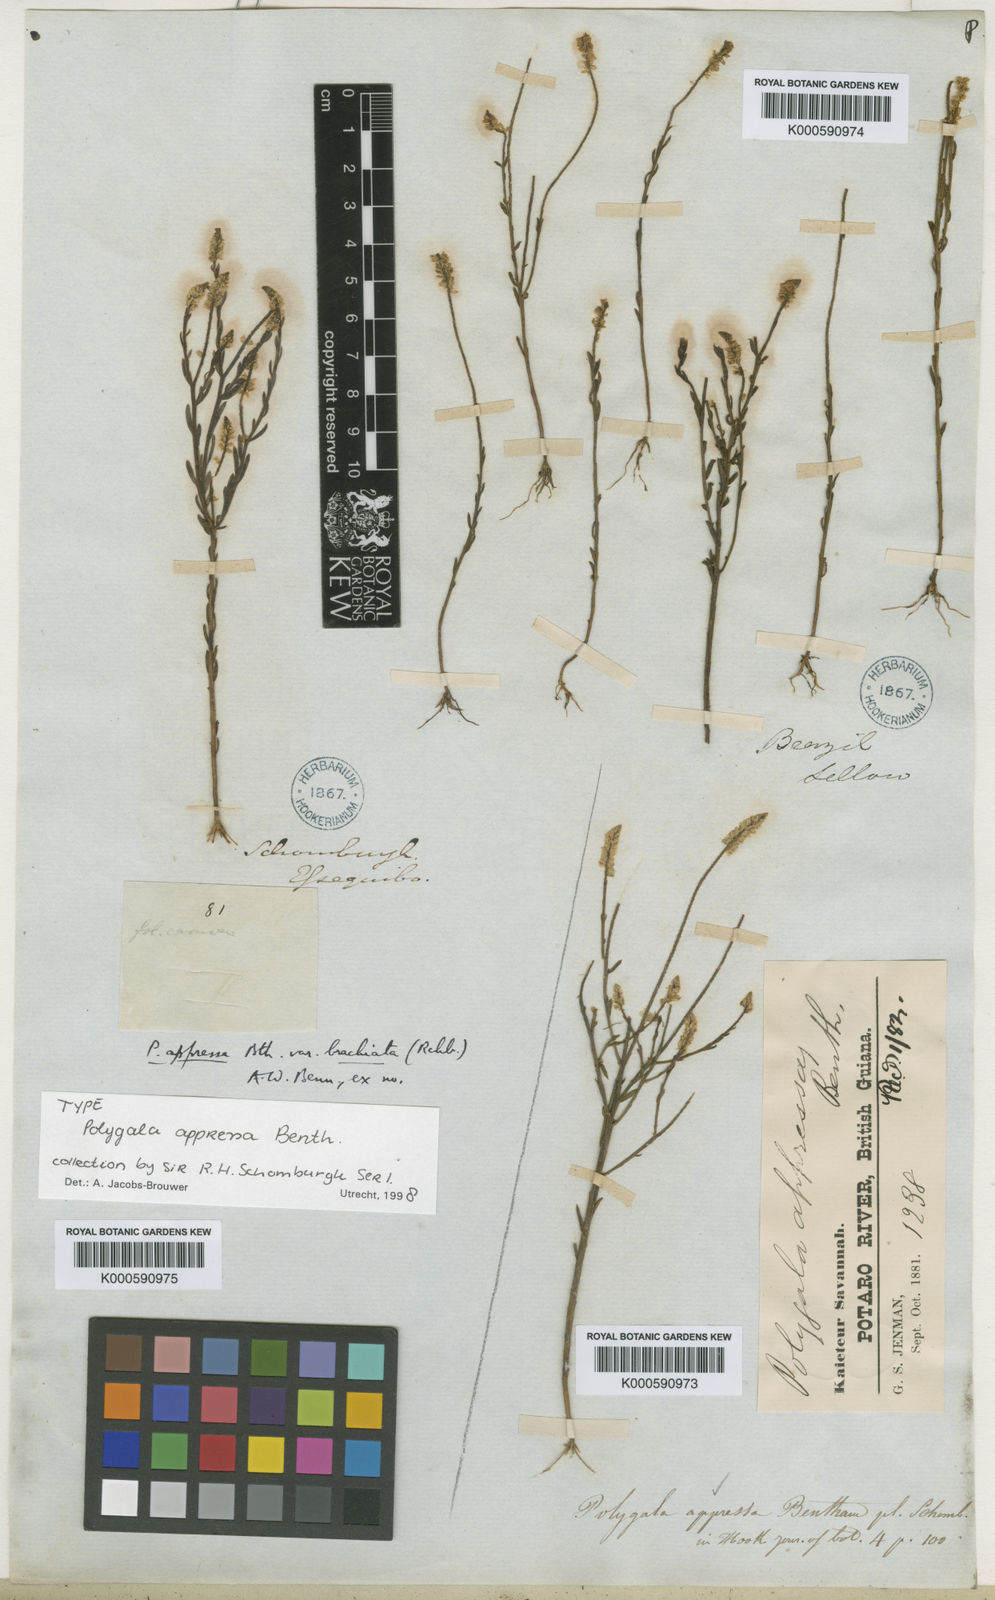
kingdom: Plantae
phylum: Tracheophyta
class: Magnoliopsida
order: Fabales
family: Polygalaceae
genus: Polygala
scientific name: Polygala appressa
